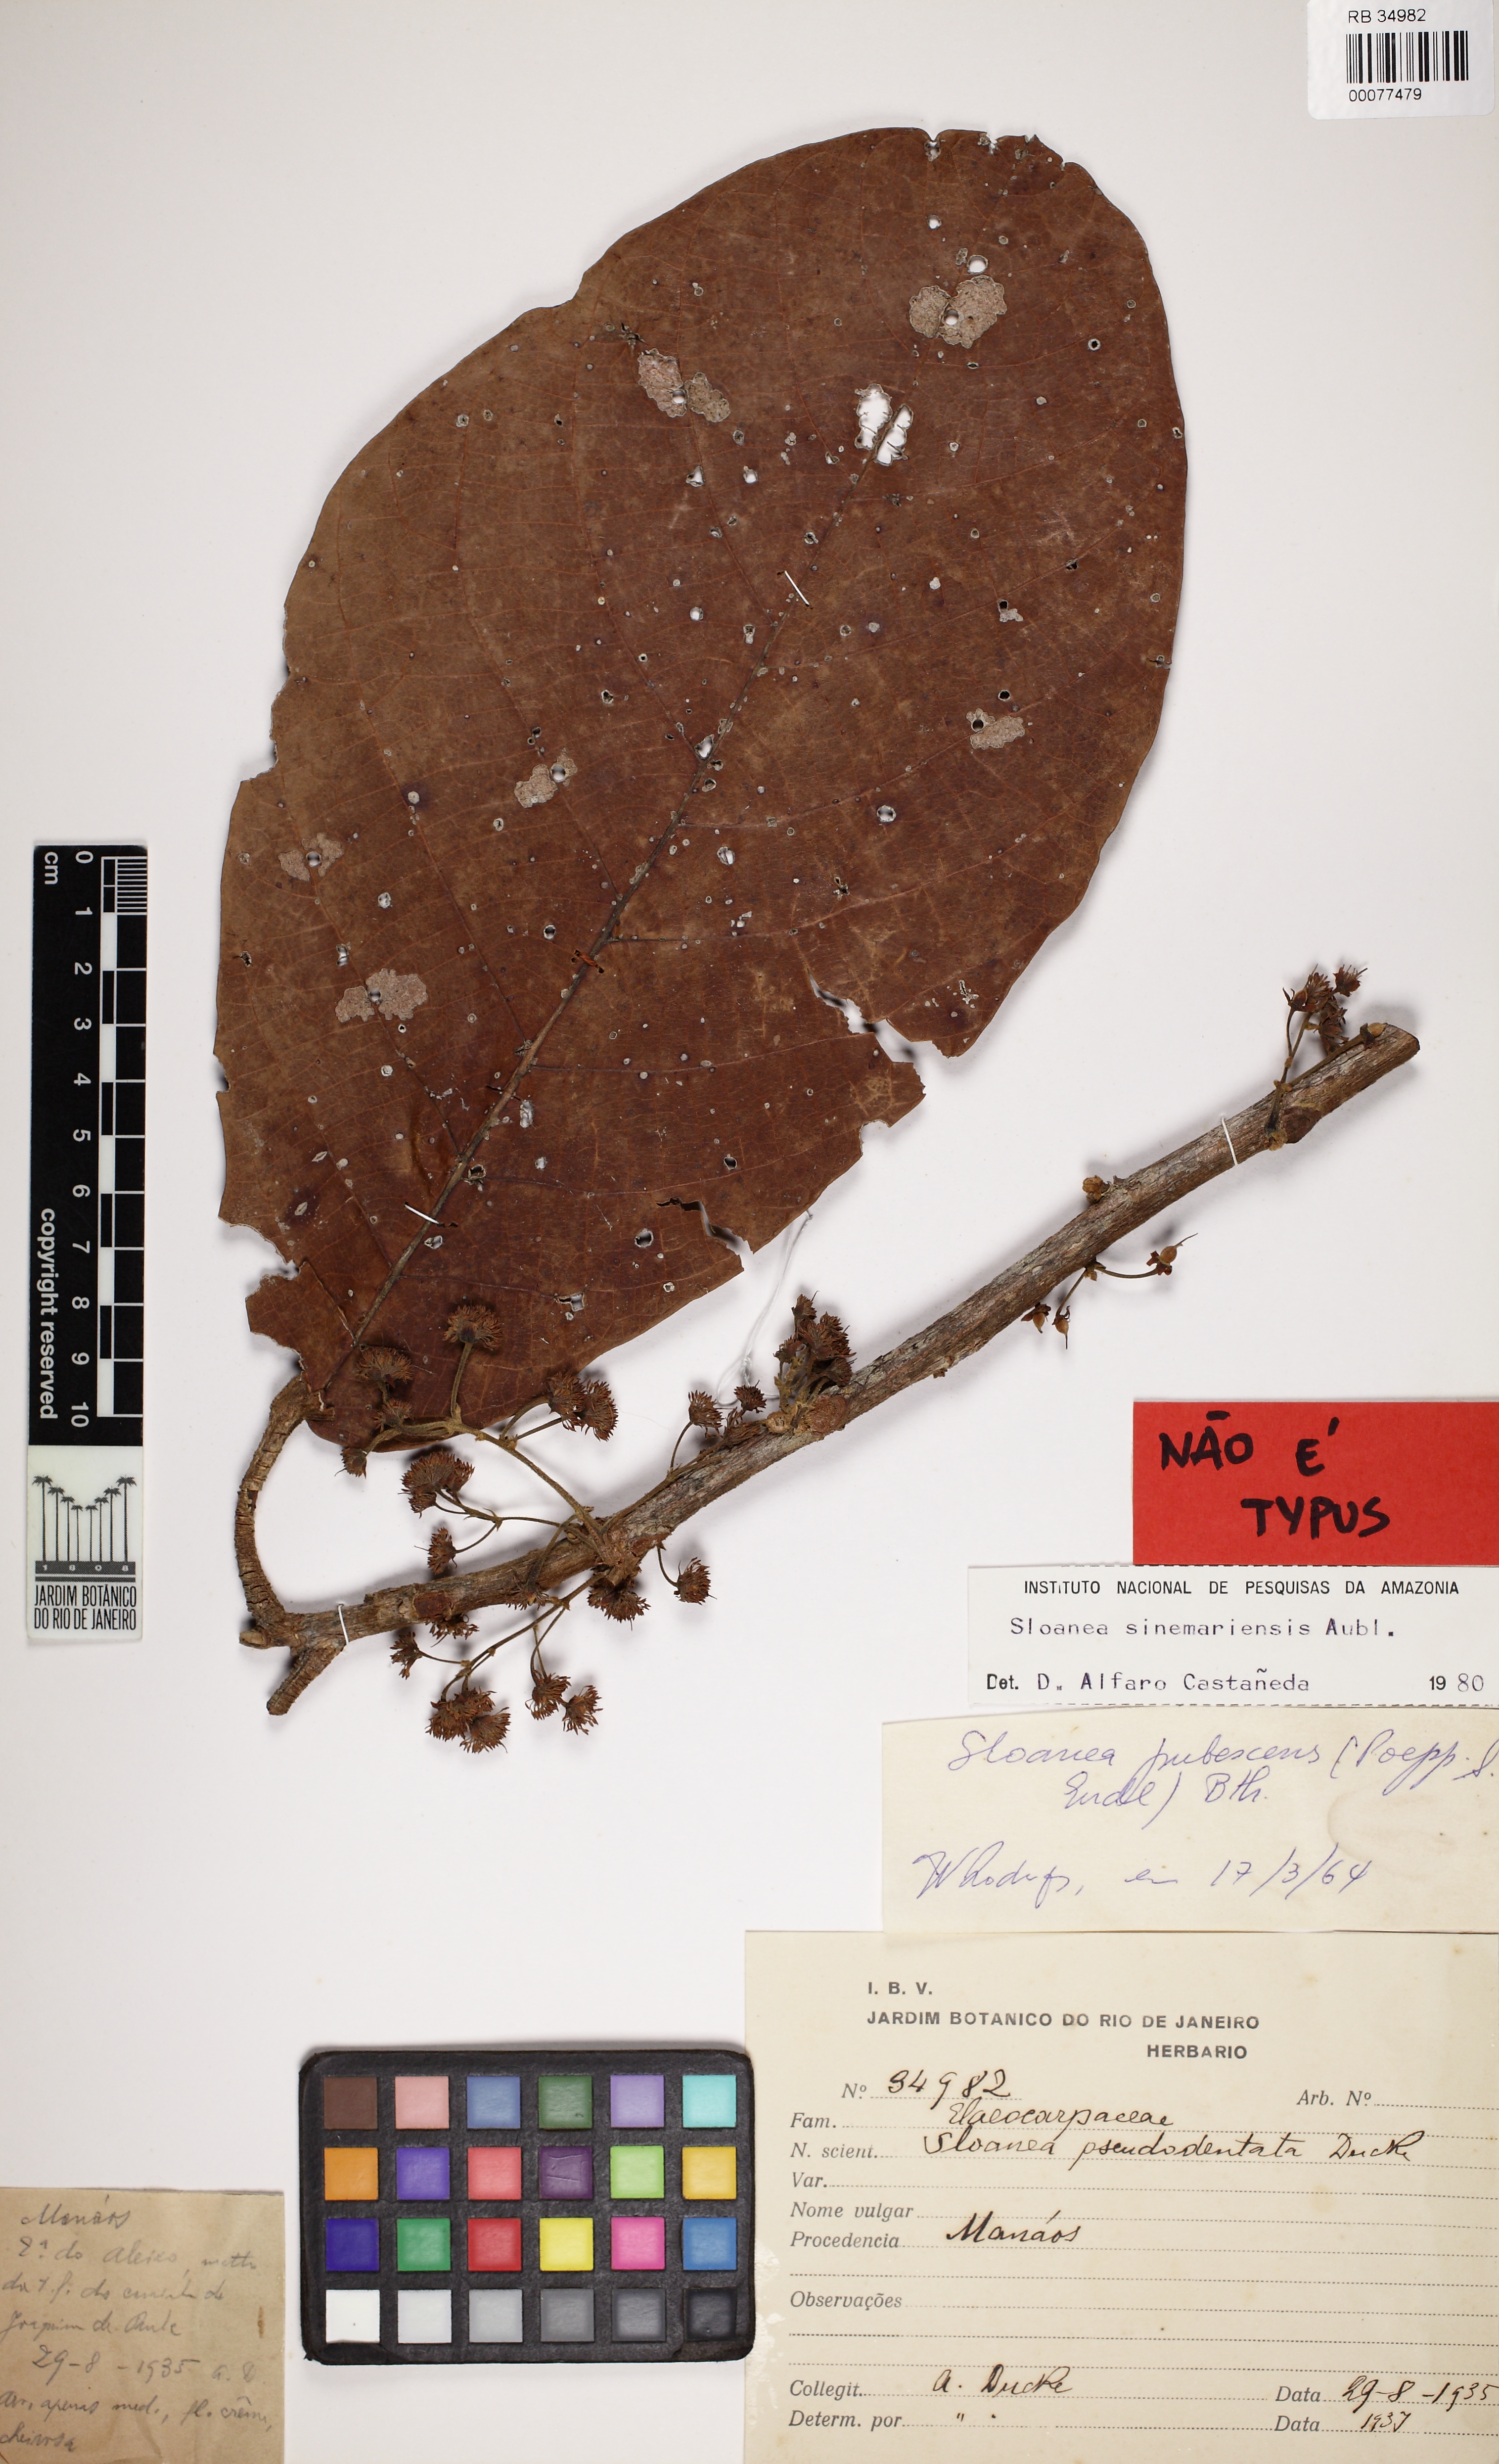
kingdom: Plantae
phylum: Tracheophyta
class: Magnoliopsida
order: Oxalidales
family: Elaeocarpaceae
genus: Sloanea
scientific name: Sloanea eichleri
